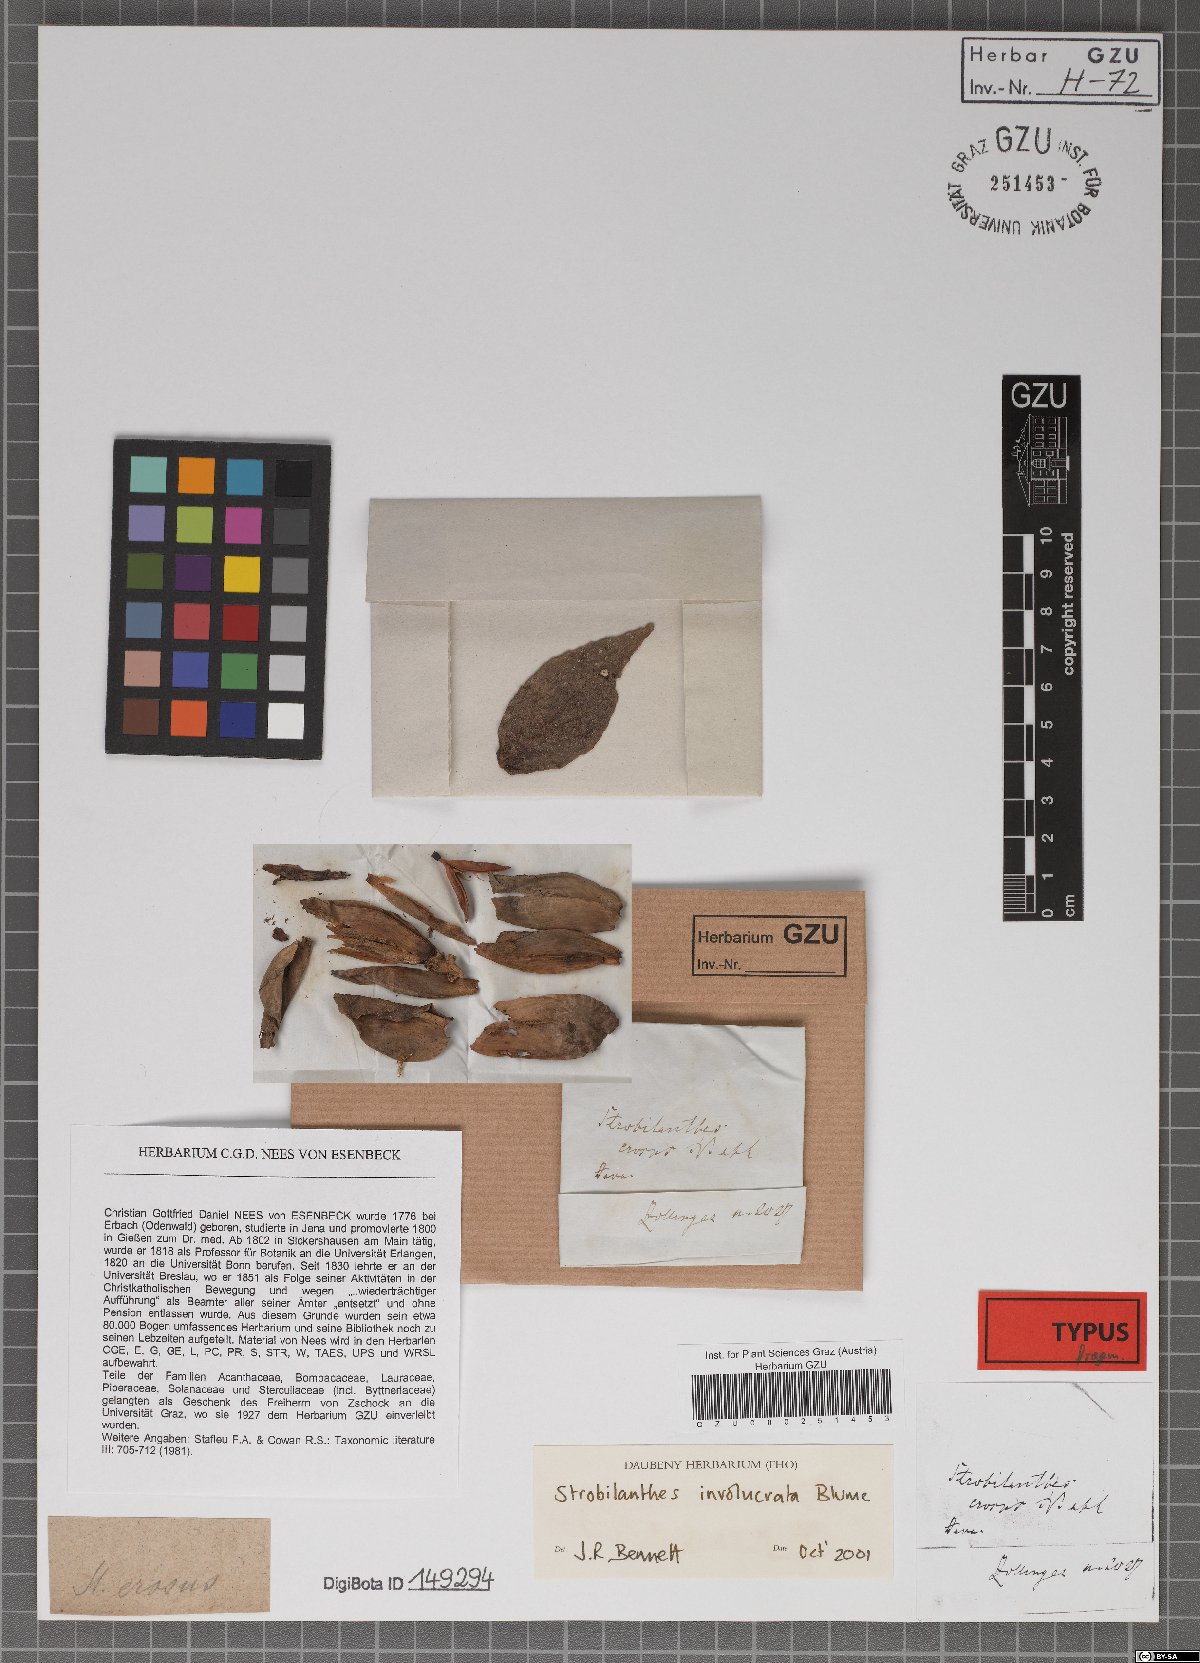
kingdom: Plantae
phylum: Tracheophyta
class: Magnoliopsida
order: Lamiales
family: Acanthaceae
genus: Strobilanthes
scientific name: Strobilanthes involucrata
